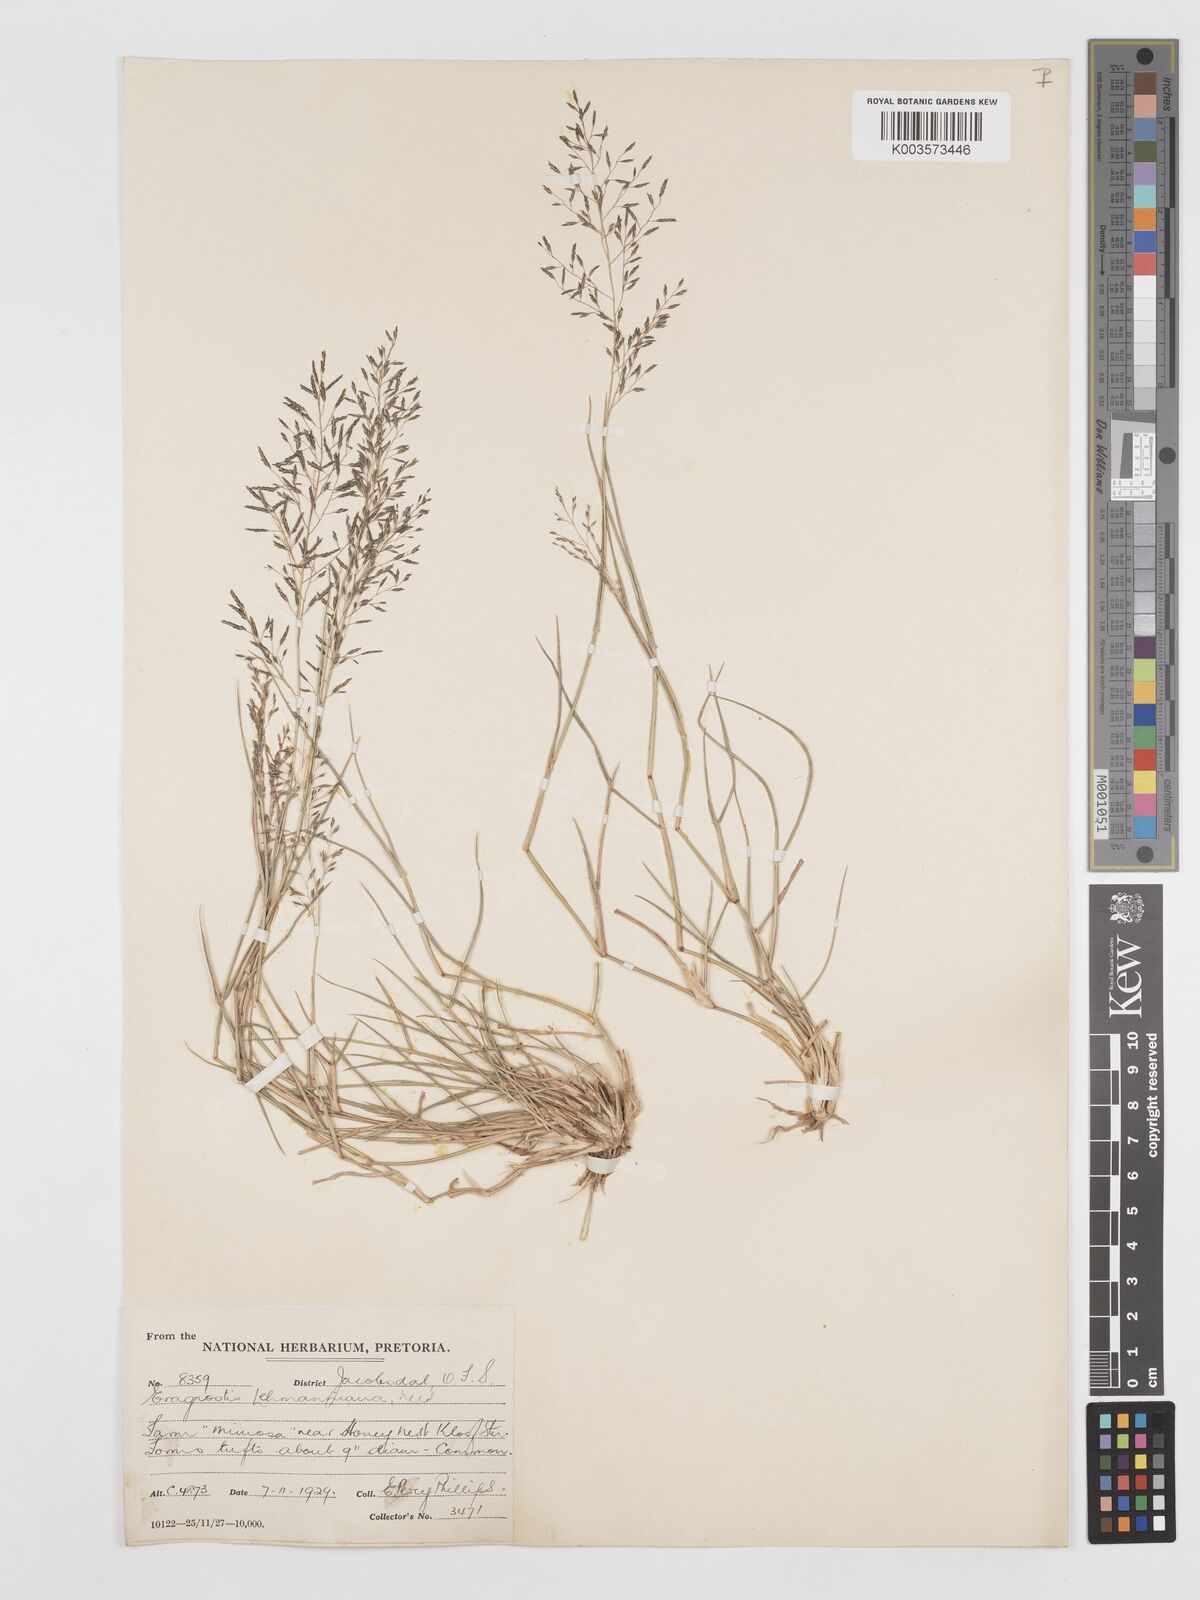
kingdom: Plantae
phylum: Tracheophyta
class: Liliopsida
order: Poales
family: Poaceae
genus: Eragrostis
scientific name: Eragrostis lehmanniana
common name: Lehmann lovegrass
